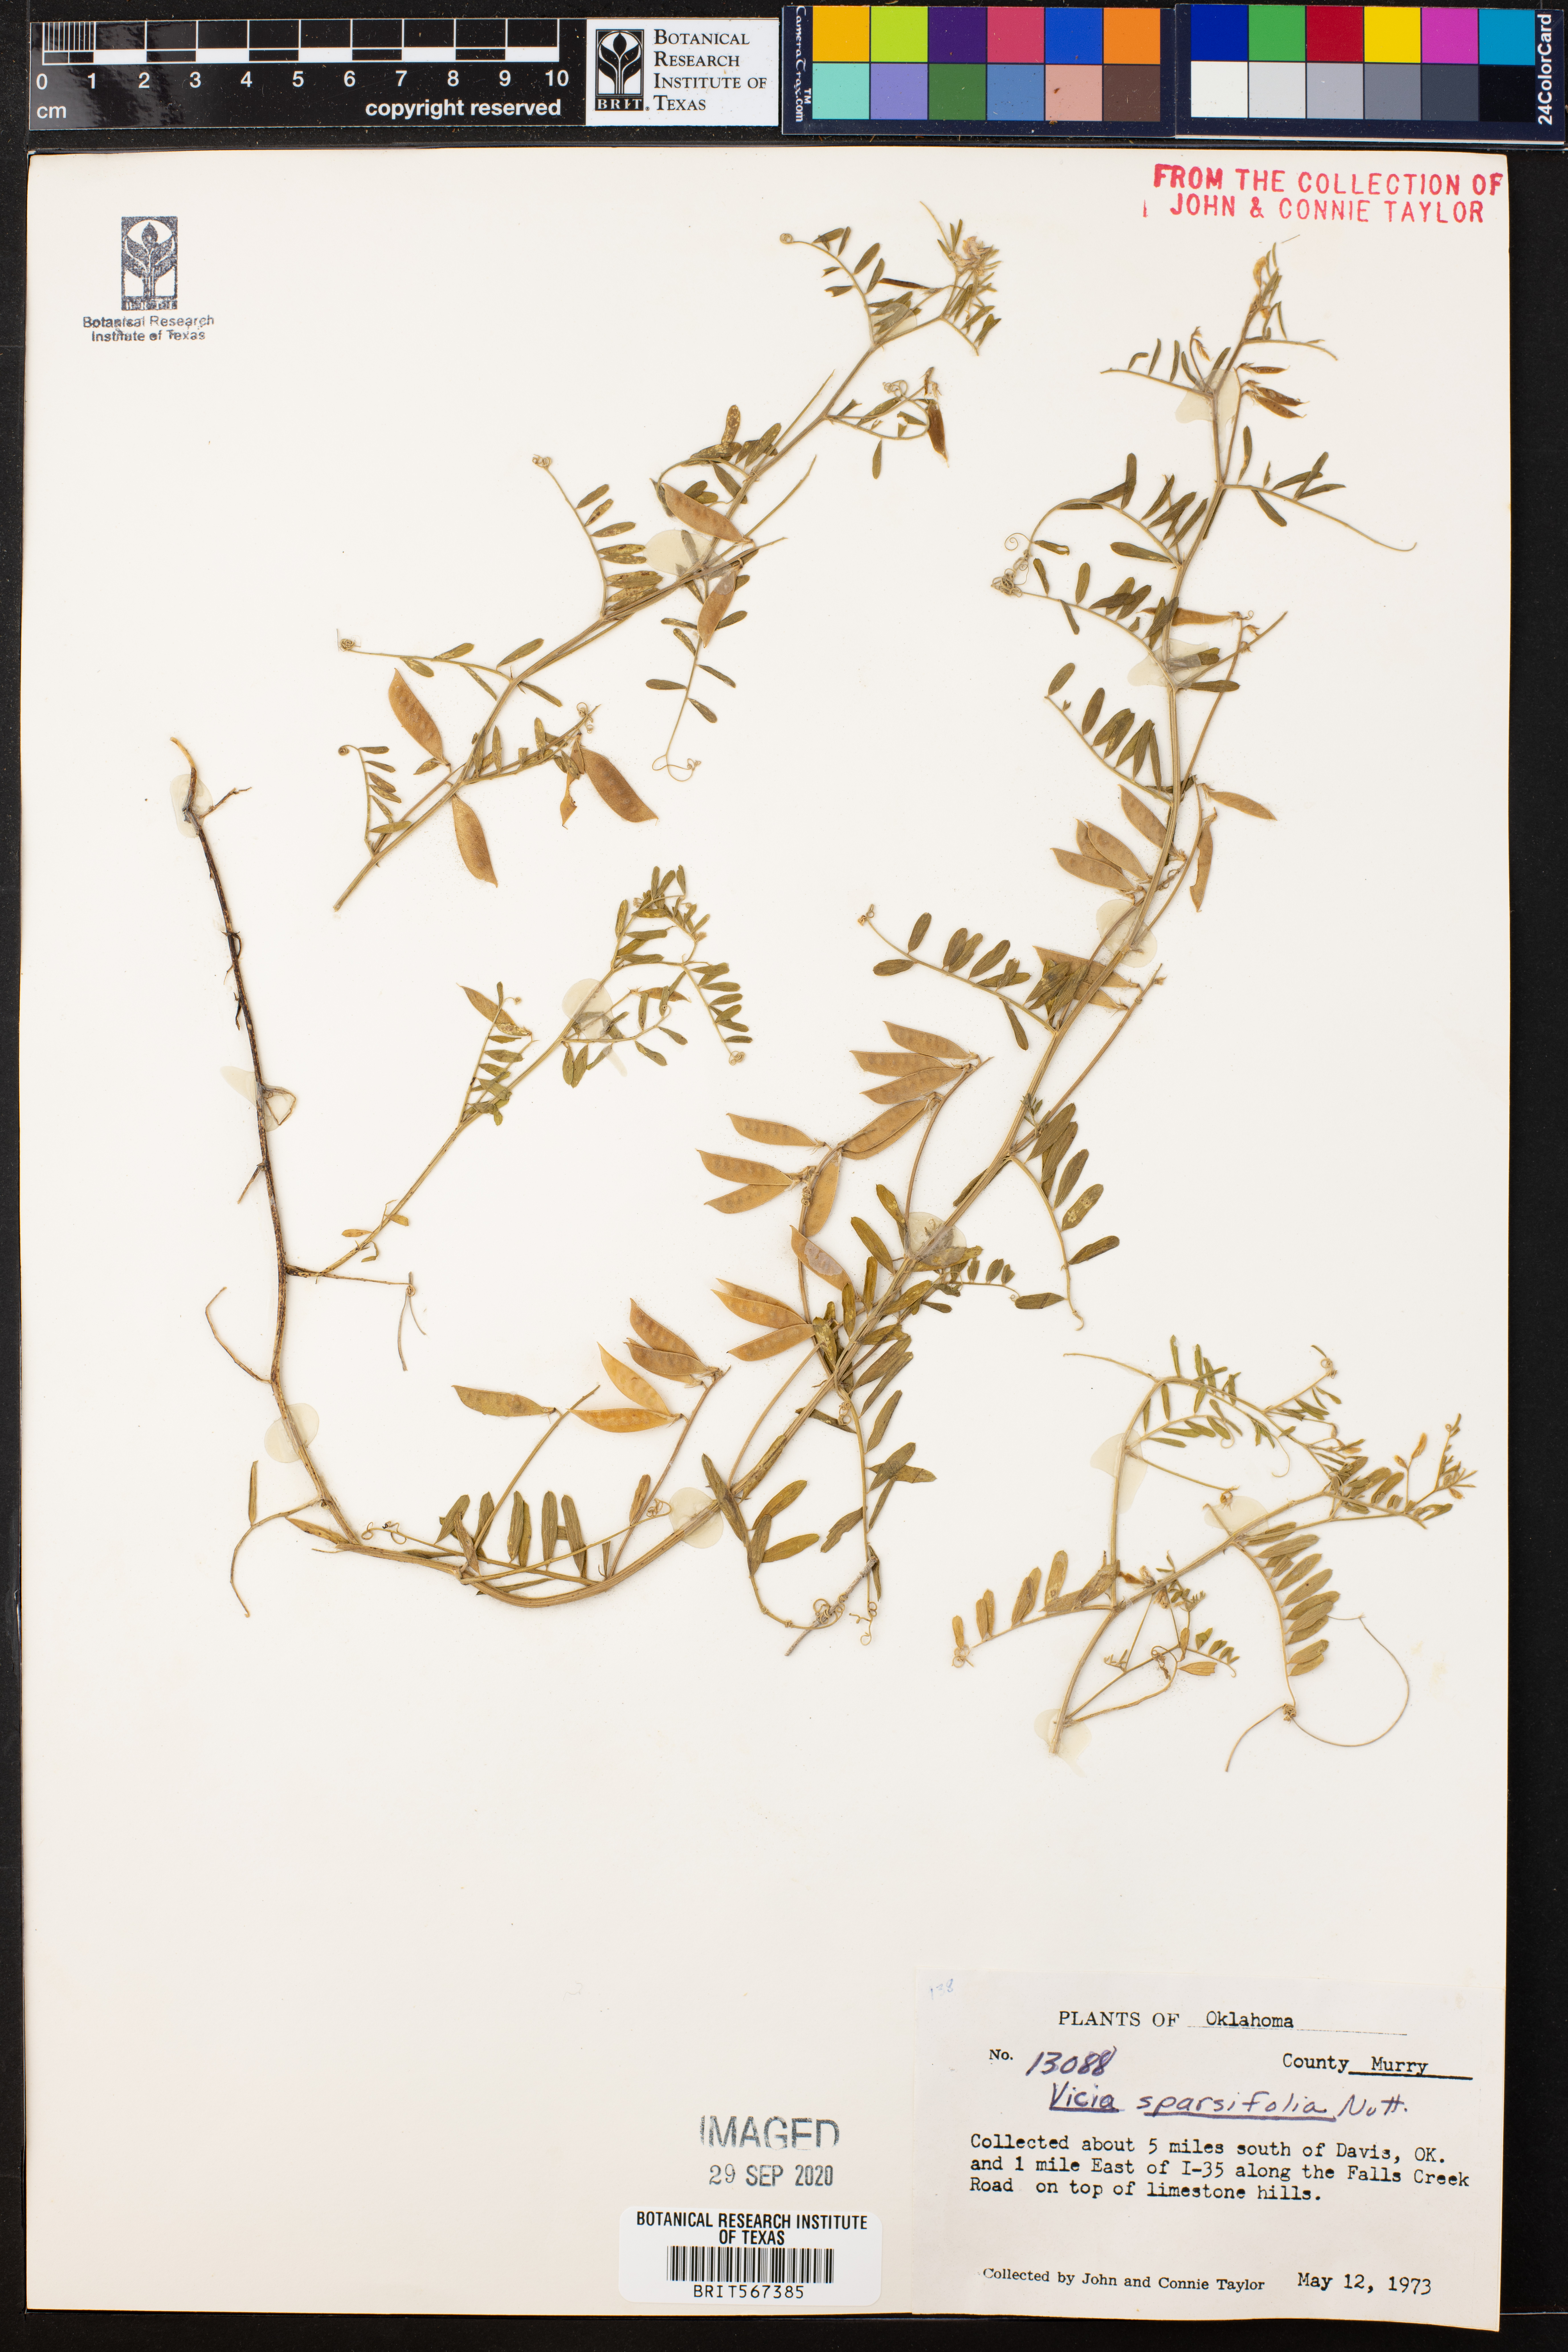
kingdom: Plantae
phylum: Tracheophyta
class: Magnoliopsida
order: Fabales
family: Fabaceae
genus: Vicia
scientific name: Vicia americana
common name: American vetch
